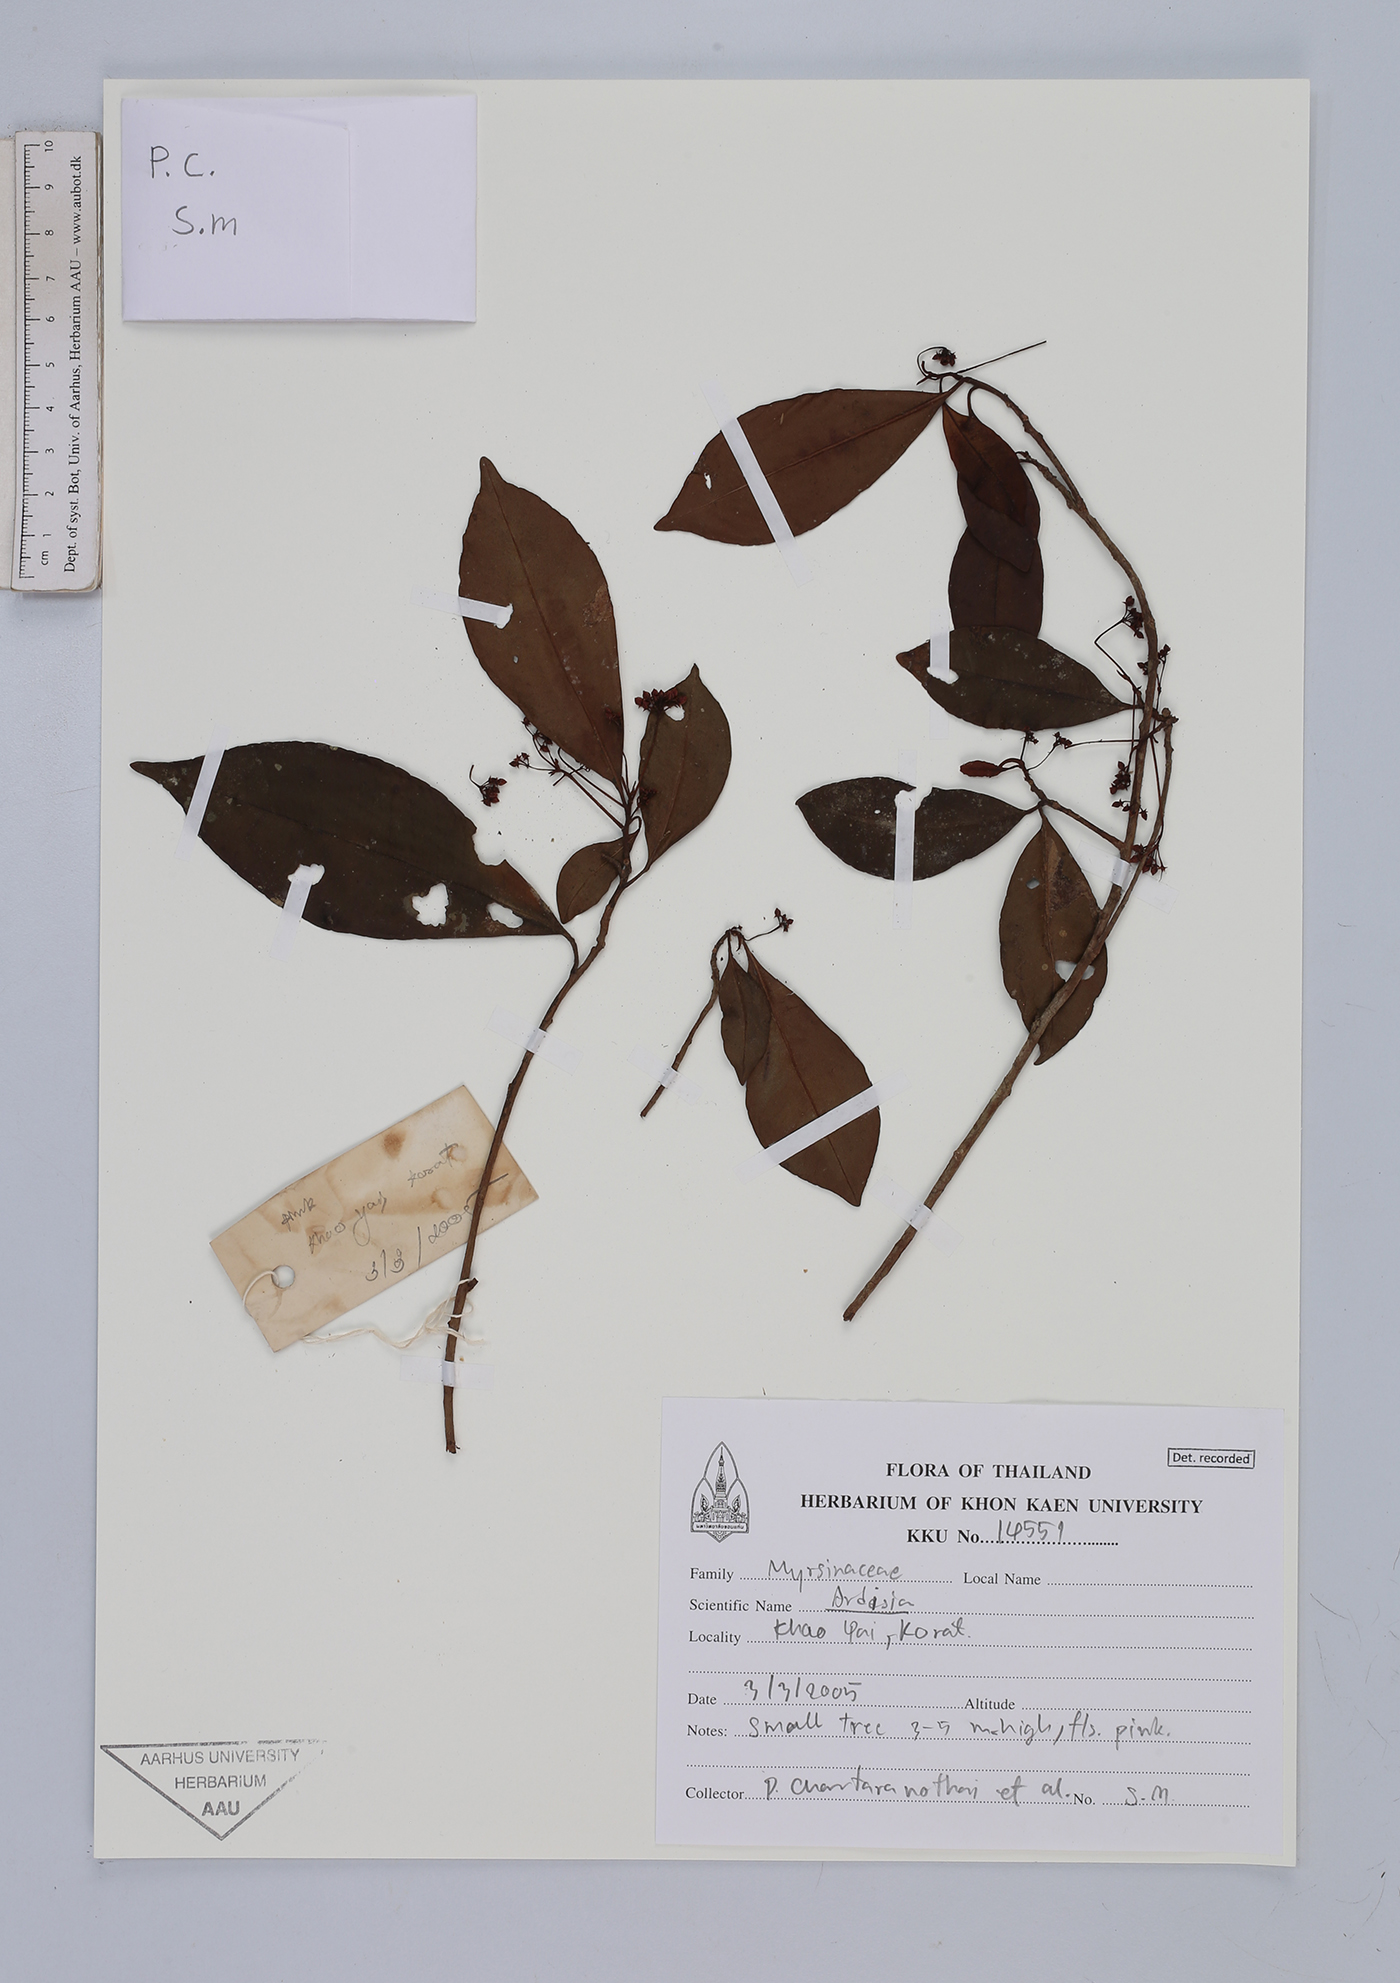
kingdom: Plantae
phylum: Tracheophyta
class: Magnoliopsida
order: Ericales
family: Primulaceae
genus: Ardisia
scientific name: Ardisia
